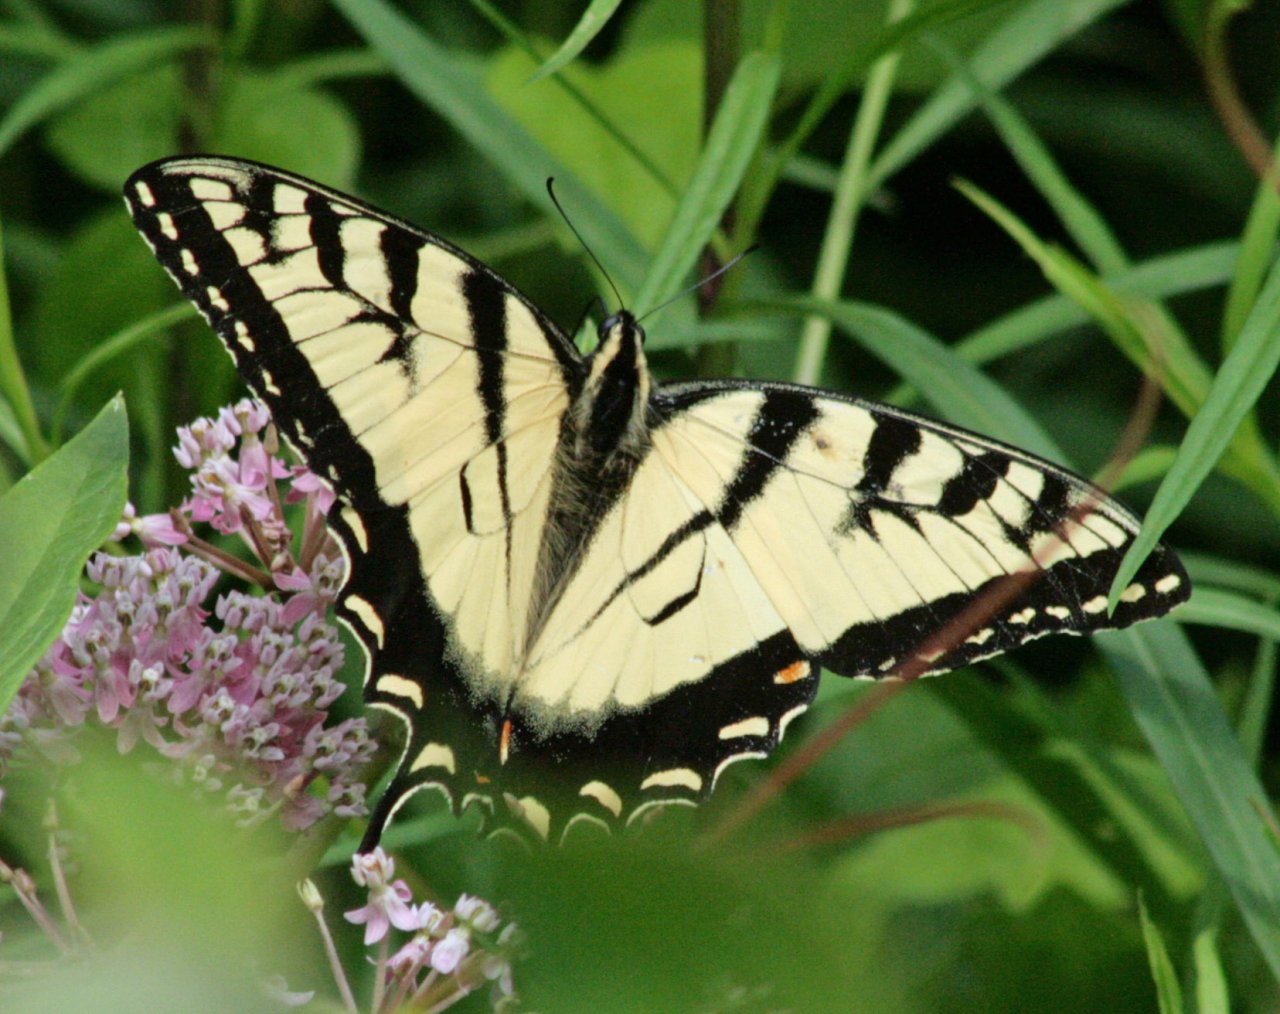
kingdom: Animalia
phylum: Arthropoda
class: Insecta
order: Lepidoptera
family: Papilionidae
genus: Pterourus
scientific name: Pterourus
